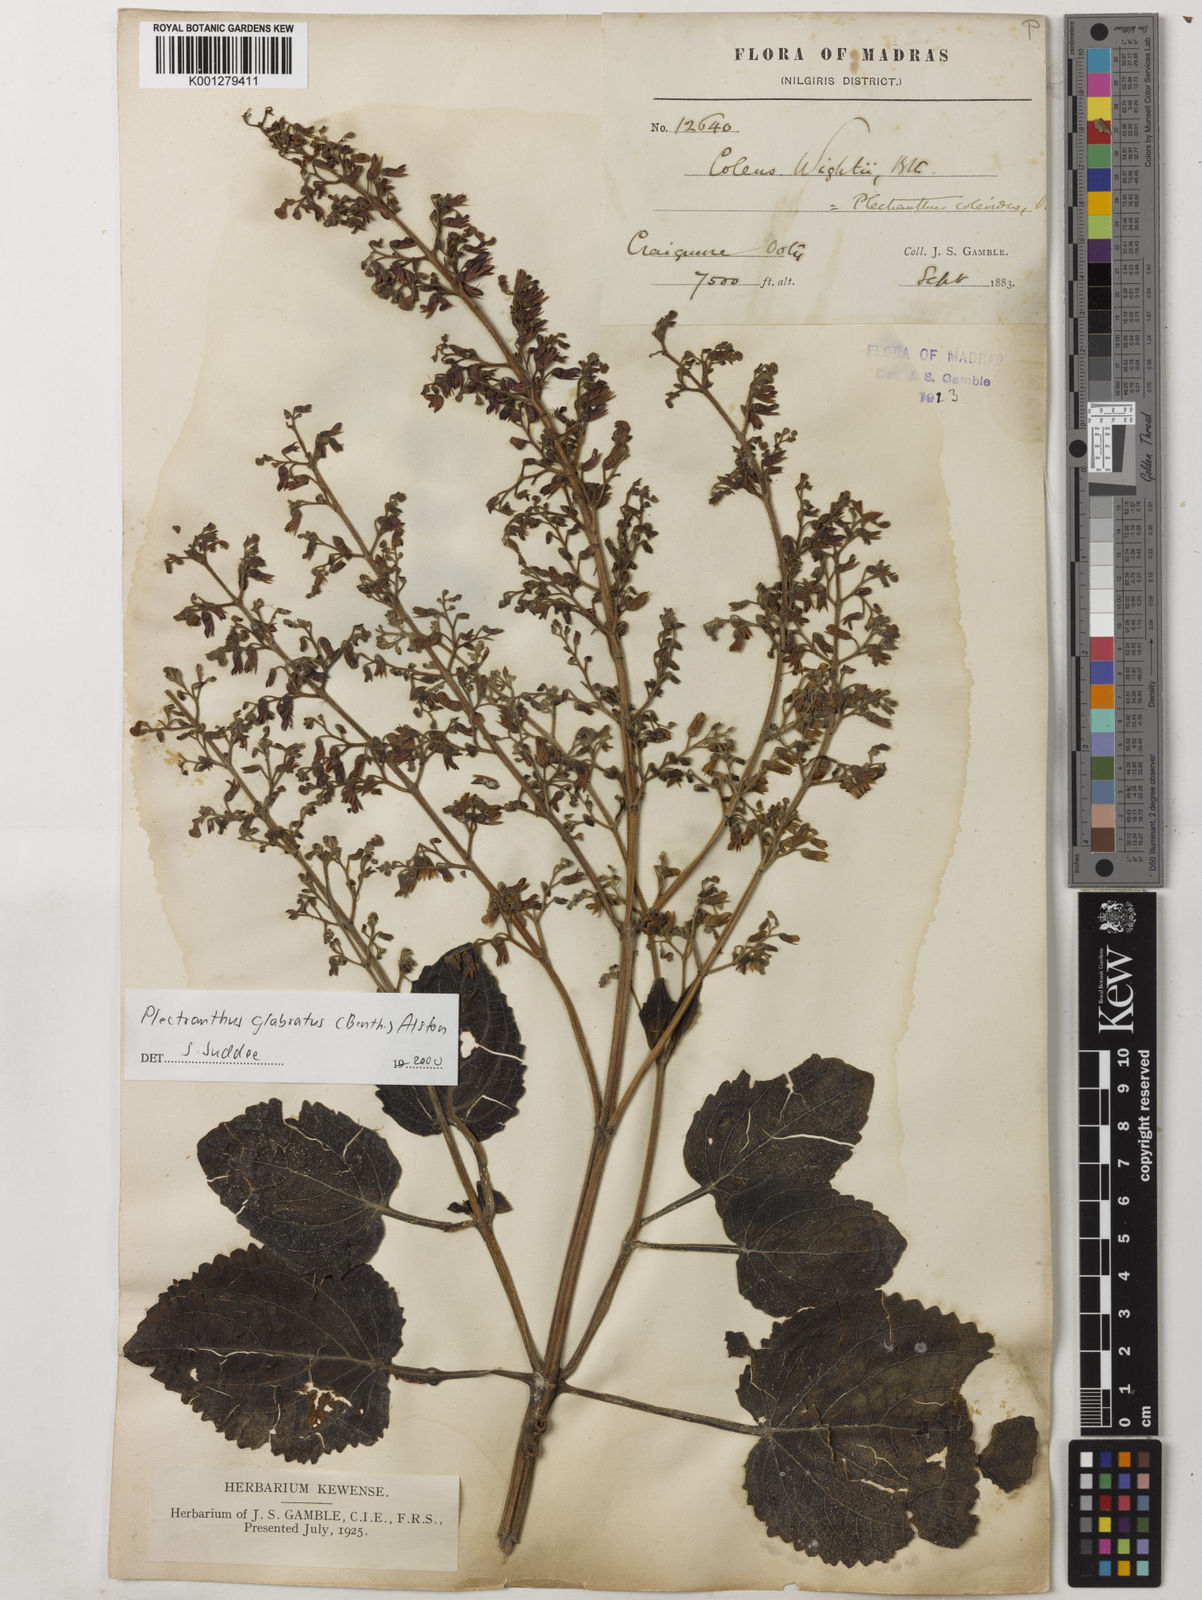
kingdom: Plantae
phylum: Tracheophyta
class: Magnoliopsida
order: Lamiales
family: Lamiaceae
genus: Coleus
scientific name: Coleus paniculatus
